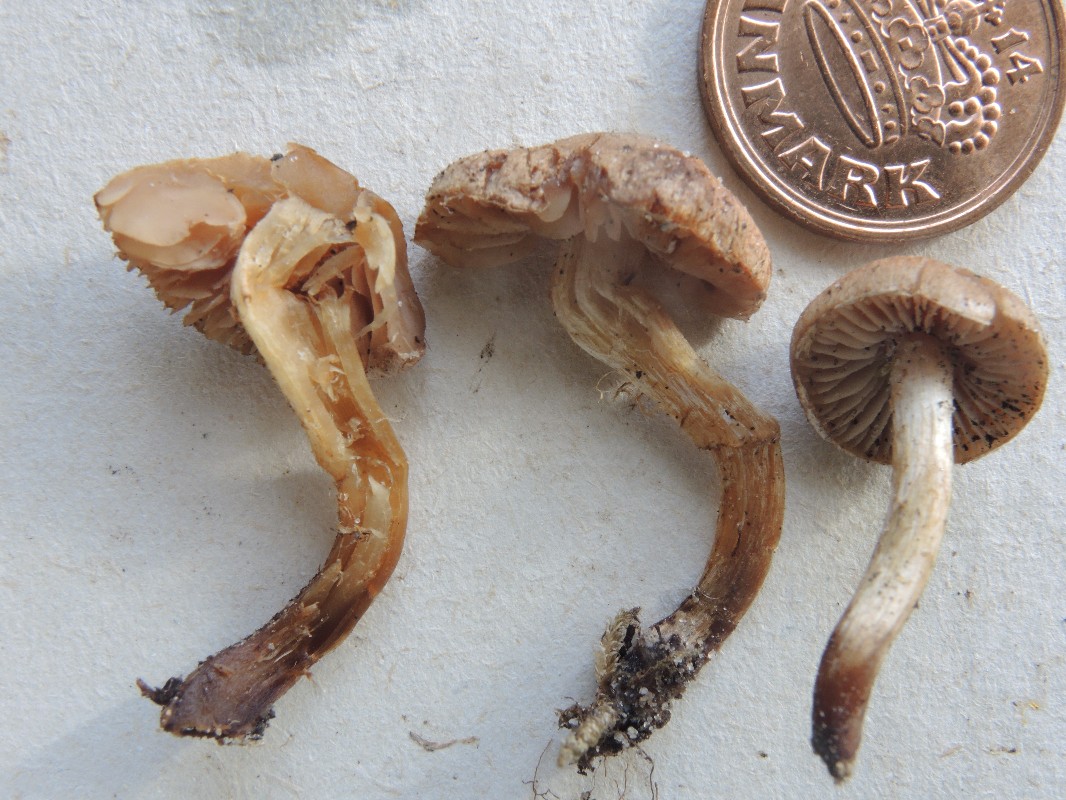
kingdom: Fungi
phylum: Basidiomycota
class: Agaricomycetes
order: Agaricales
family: Hymenogastraceae
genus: Hebeloma
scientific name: Hebeloma
